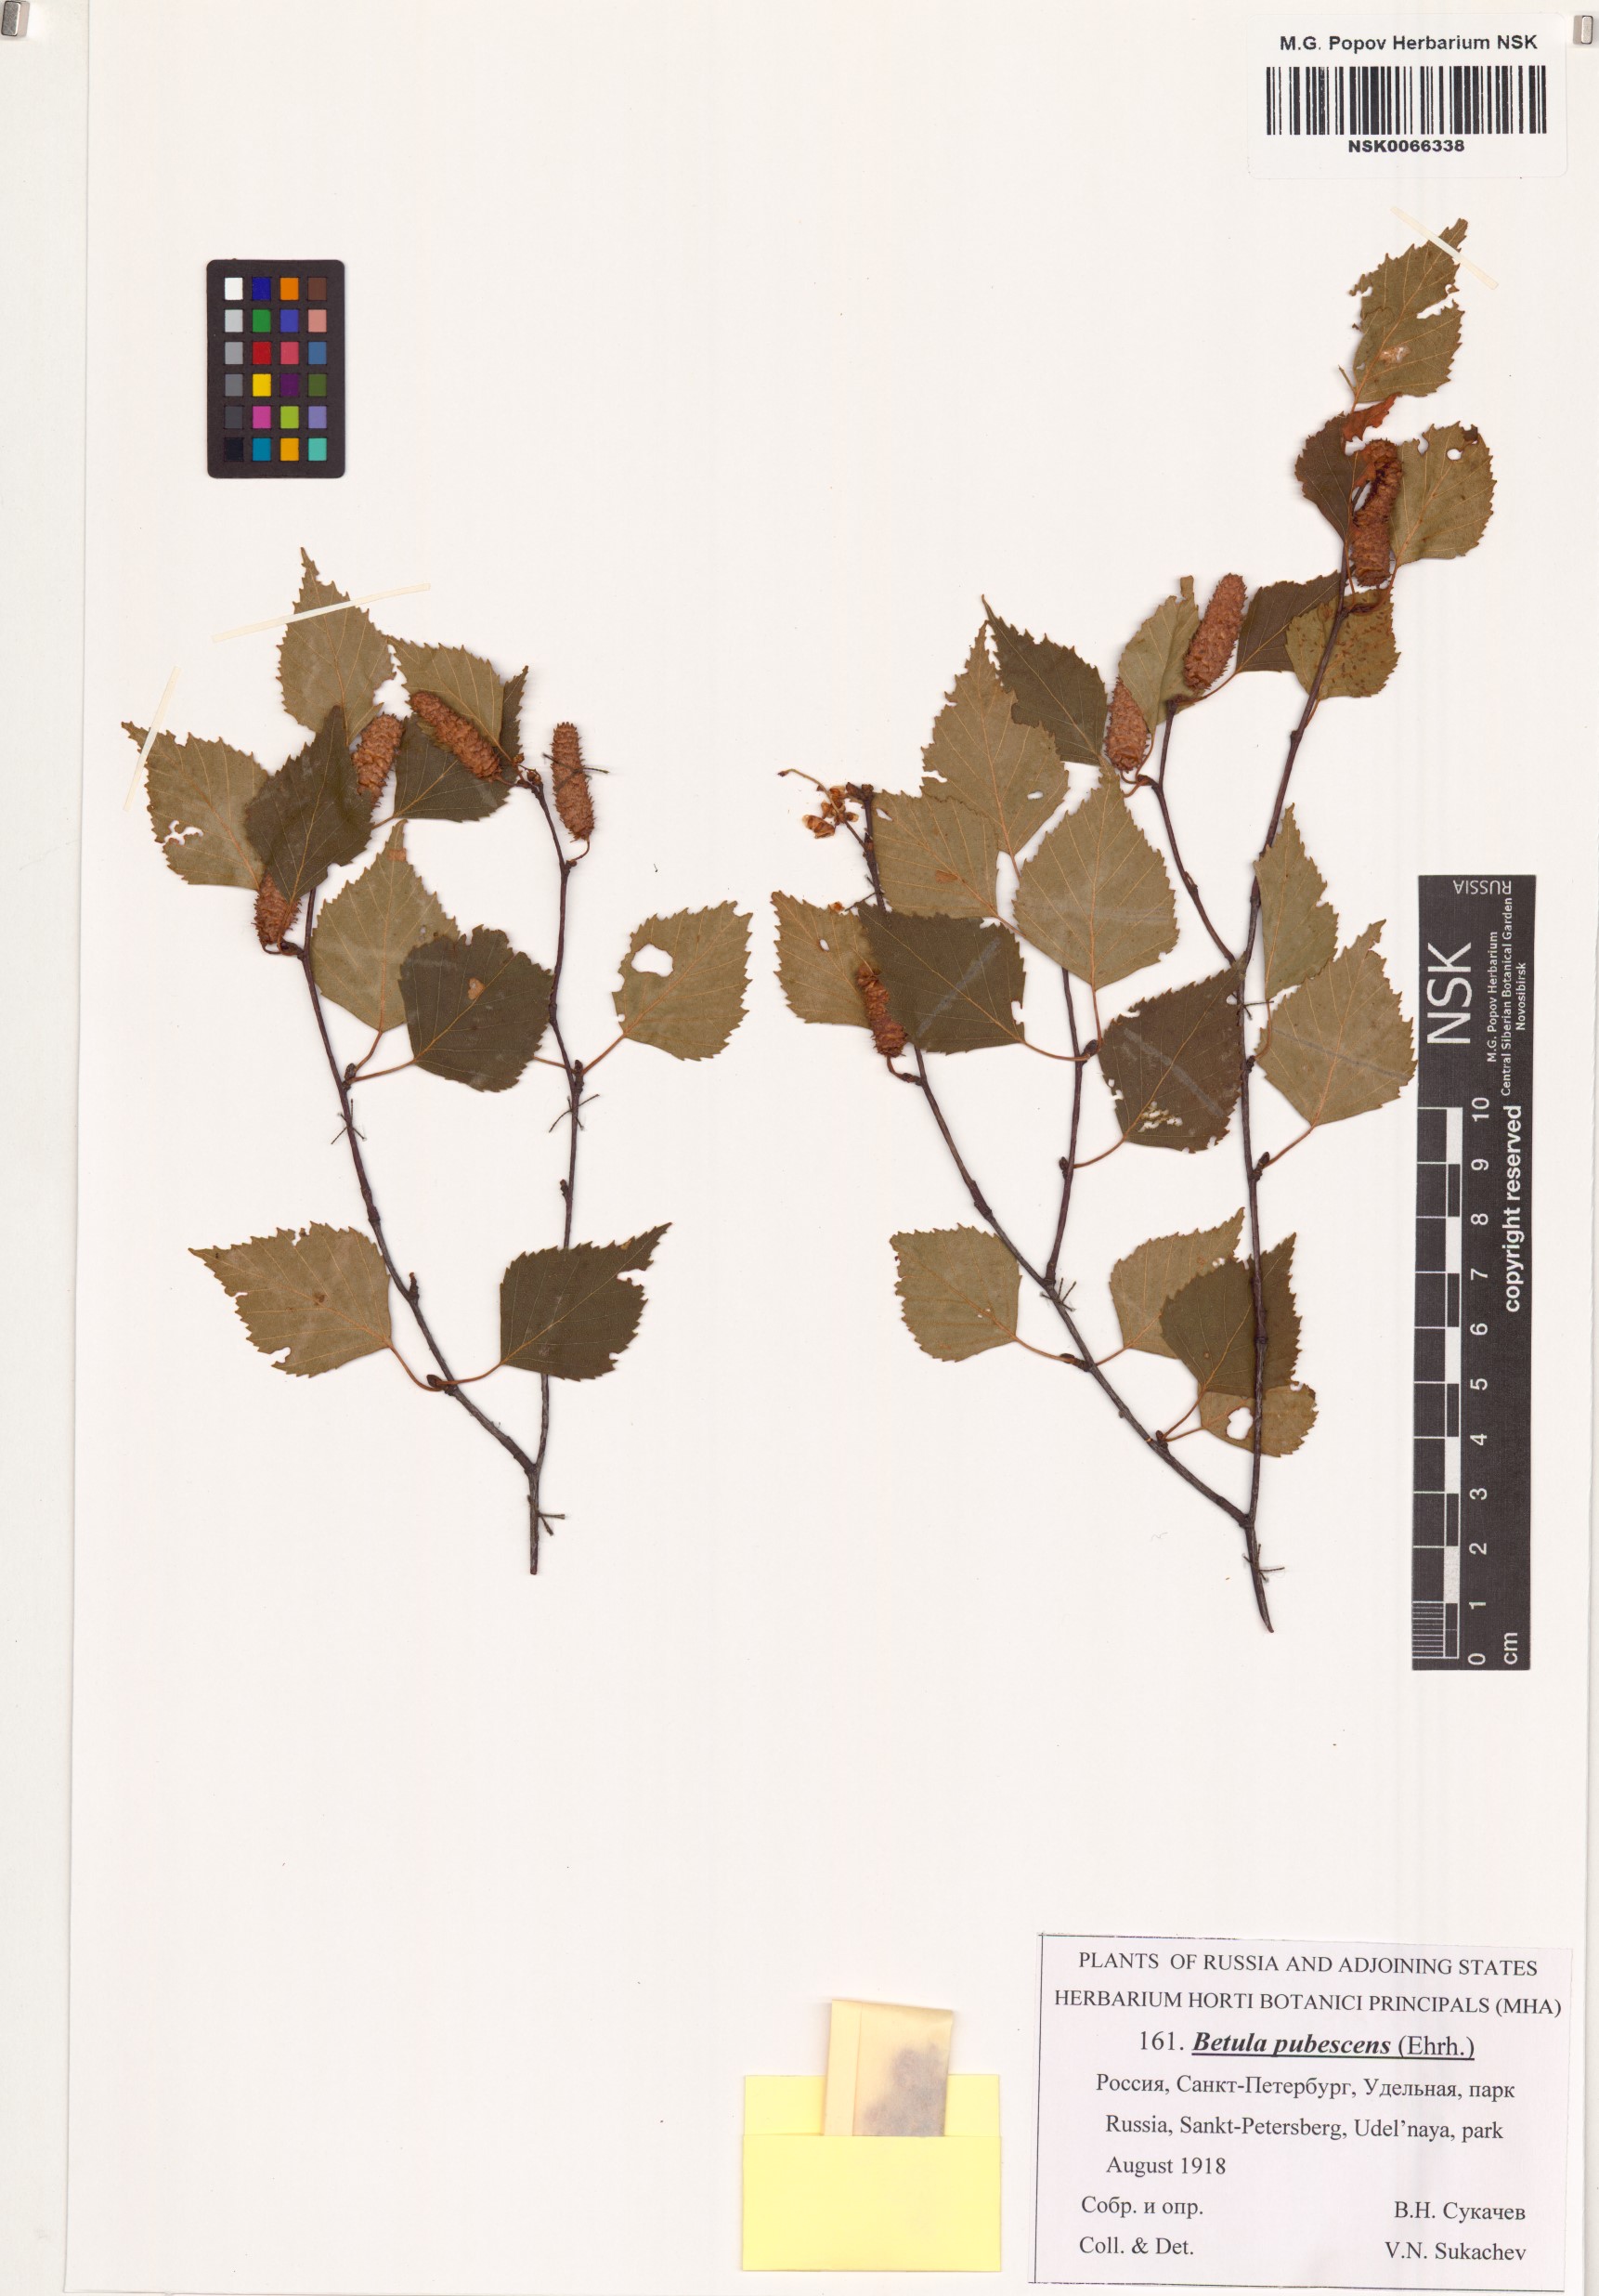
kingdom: Plantae
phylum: Tracheophyta
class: Magnoliopsida
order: Fagales
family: Betulaceae
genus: Betula
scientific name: Betula pubescens
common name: Downy birch
